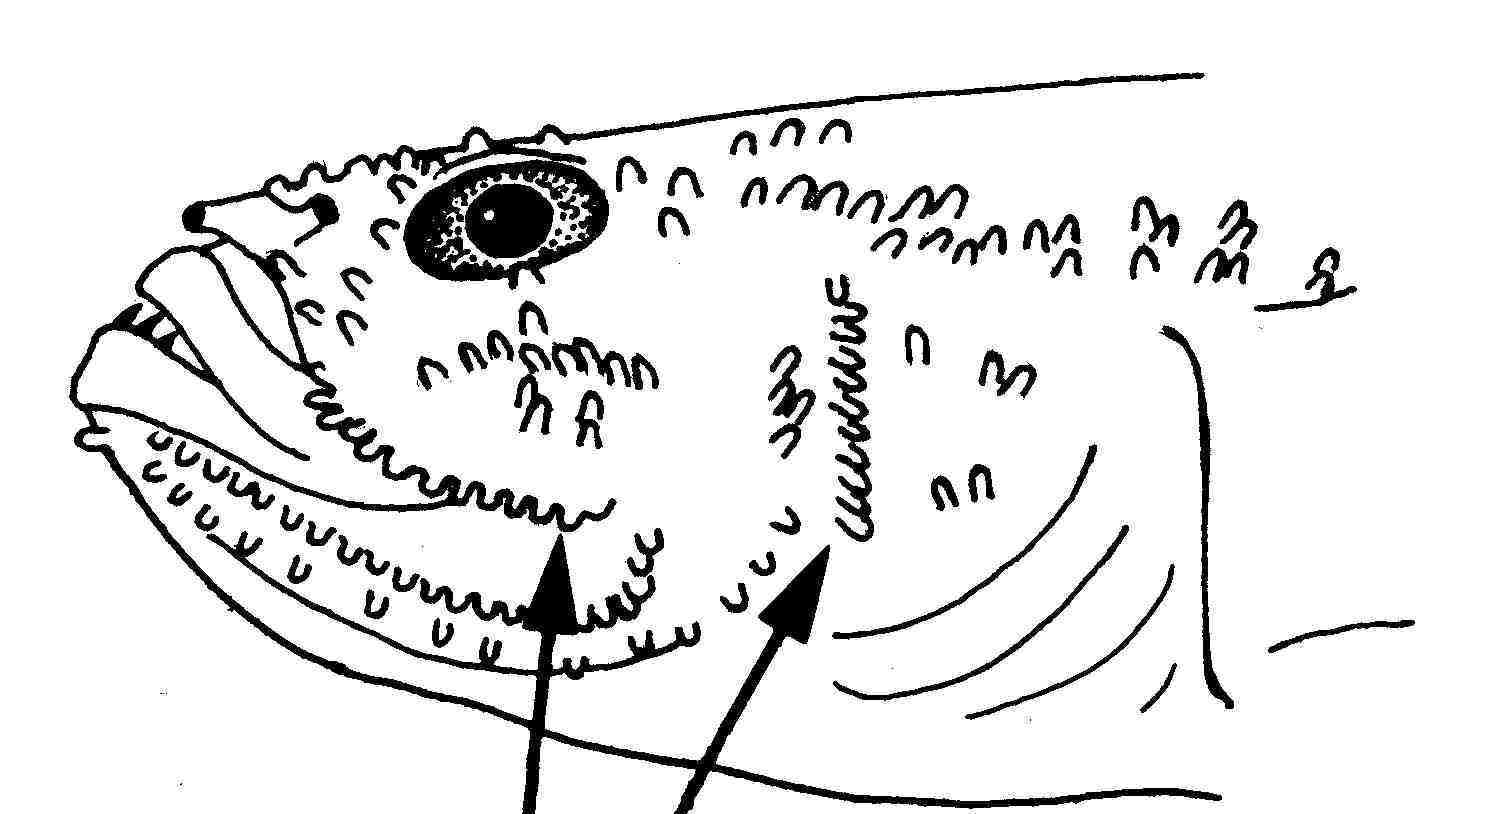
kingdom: Animalia
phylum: Chordata
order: Perciformes
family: Gobiidae
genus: Feia
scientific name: Feia nympha
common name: Feia goby
